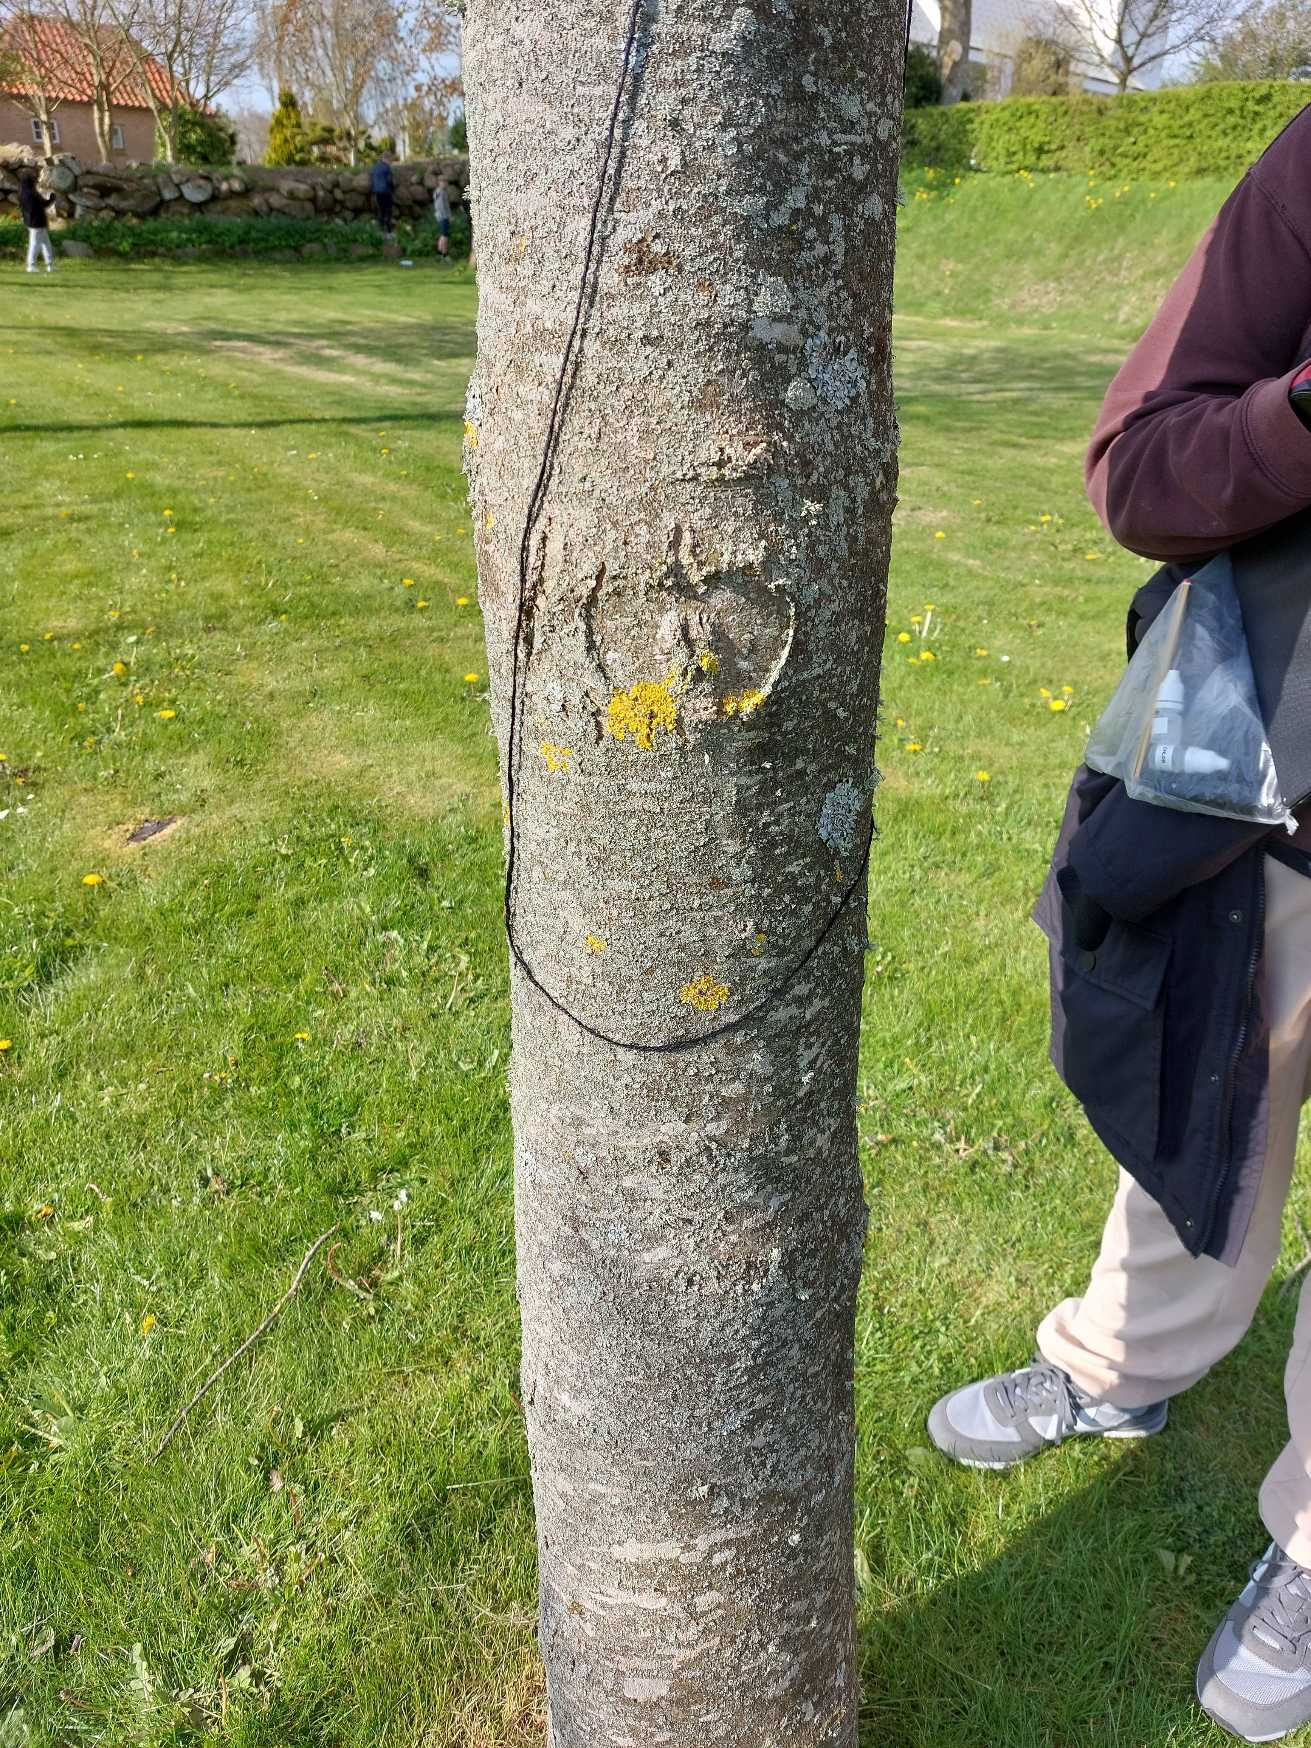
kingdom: Fungi
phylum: Ascomycota
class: Lecanoromycetes
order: Teloschistales
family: Teloschistaceae
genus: Xanthoria
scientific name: Xanthoria parietina
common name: Almindelig væggelav
